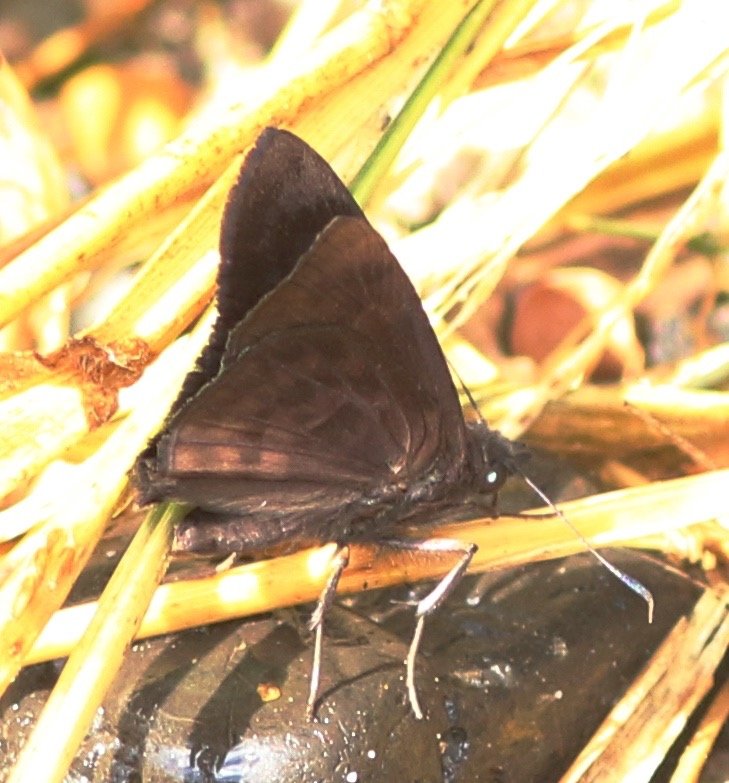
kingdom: Animalia
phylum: Arthropoda
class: Insecta
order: Lepidoptera
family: Hesperiidae
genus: Pellicia
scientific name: Pellicia costimacula
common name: Glazed Pellicia
